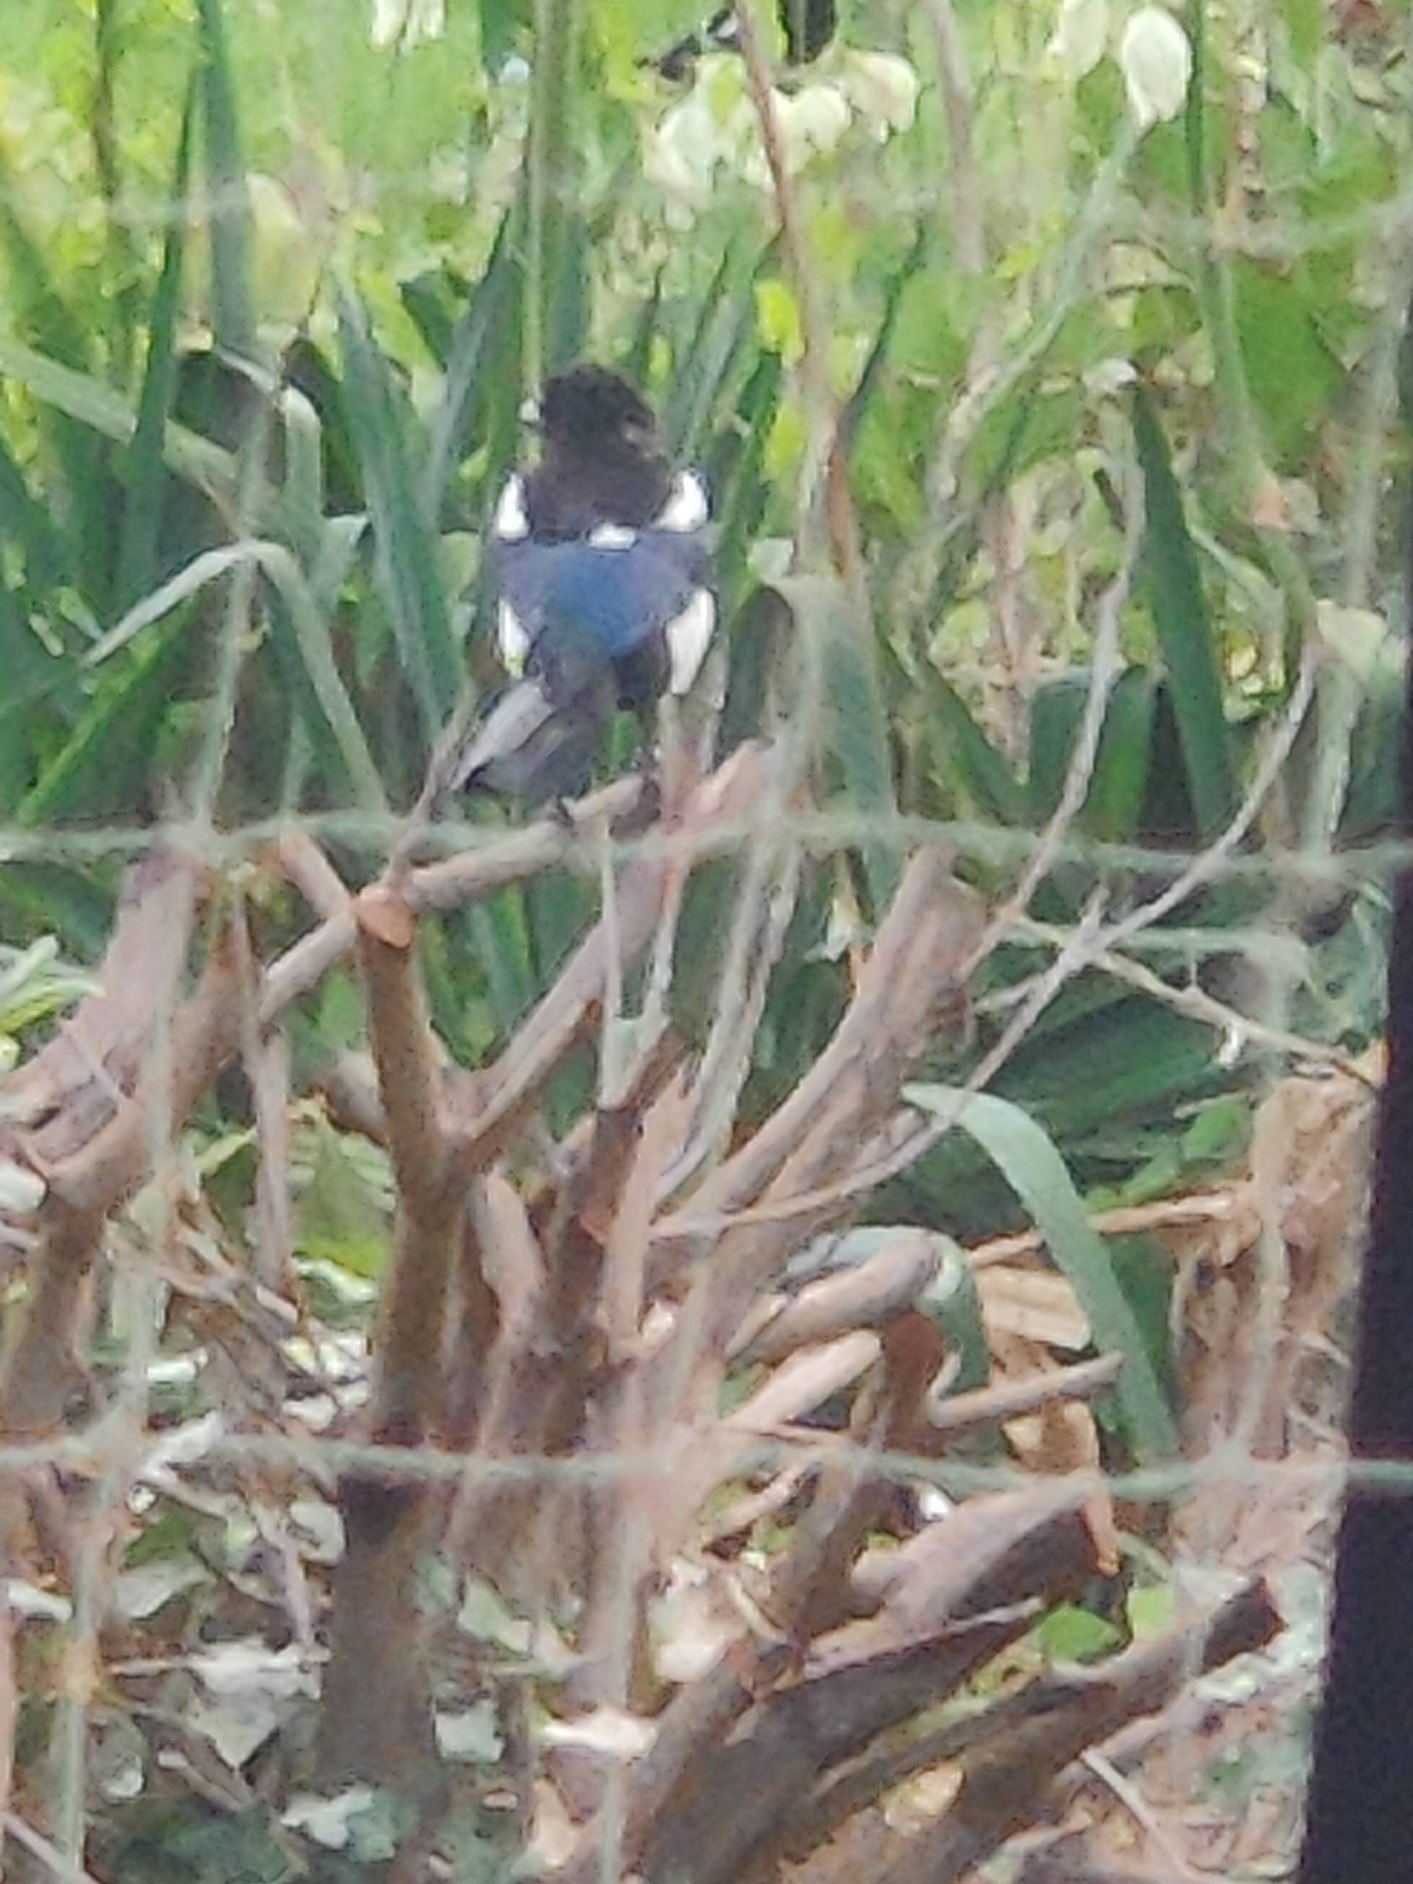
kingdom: Animalia
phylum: Chordata
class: Aves
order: Passeriformes
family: Corvidae
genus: Pica
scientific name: Pica pica
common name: Husskade
